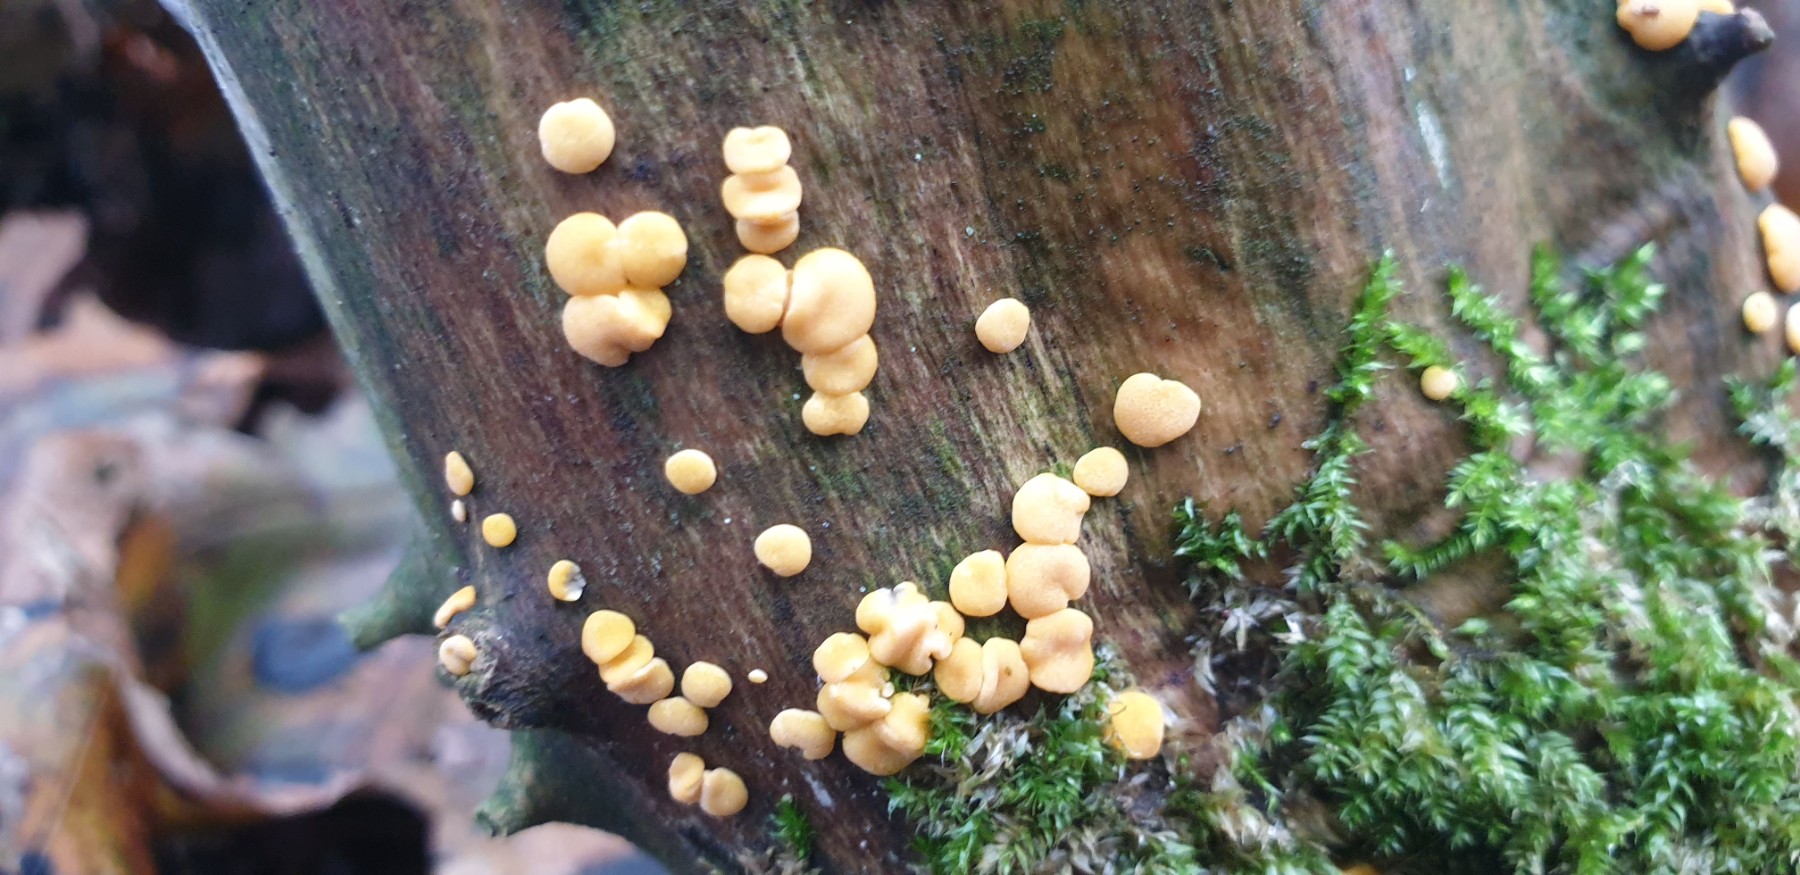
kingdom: Fungi
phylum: Ascomycota
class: Sordariomycetes
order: Hypocreales
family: Hypocreaceae
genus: Trichoderma
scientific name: Trichoderma aureoviride
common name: æggegul kødkerne
